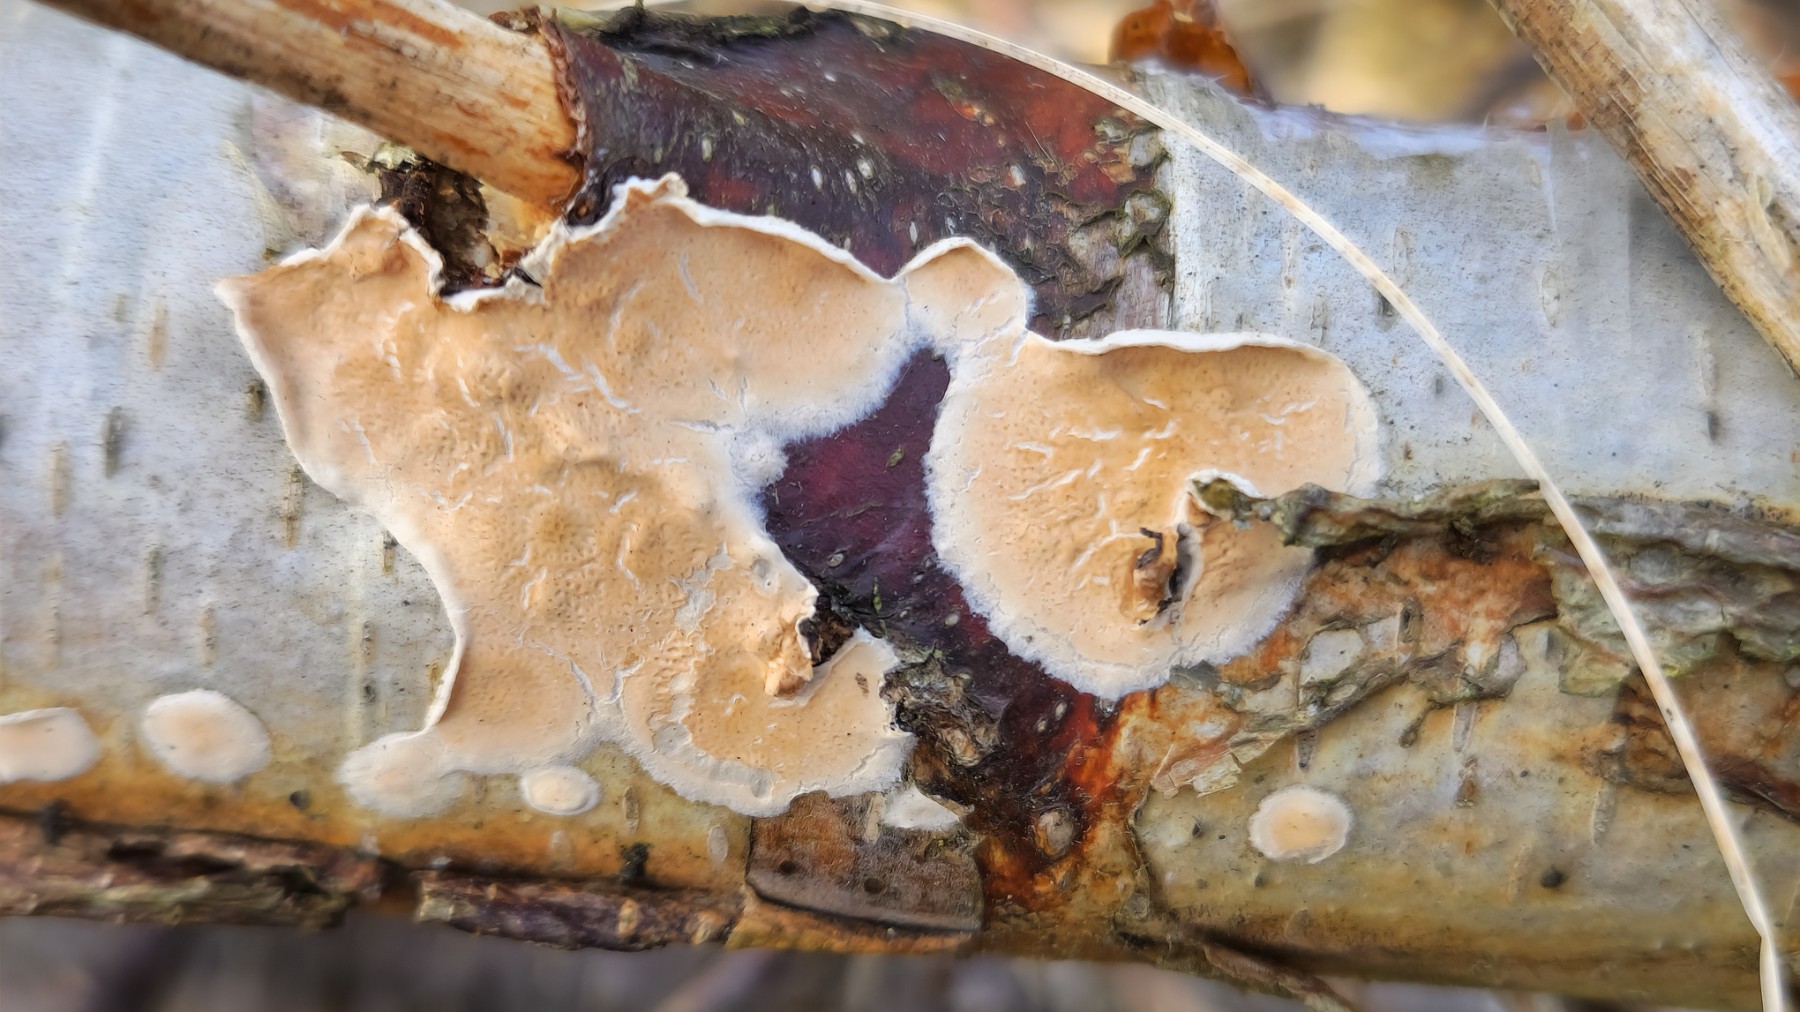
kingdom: Fungi
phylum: Basidiomycota
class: Agaricomycetes
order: Agaricales
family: Physalacriaceae
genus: Cylindrobasidium
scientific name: Cylindrobasidium evolvens
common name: sprækkehinde
